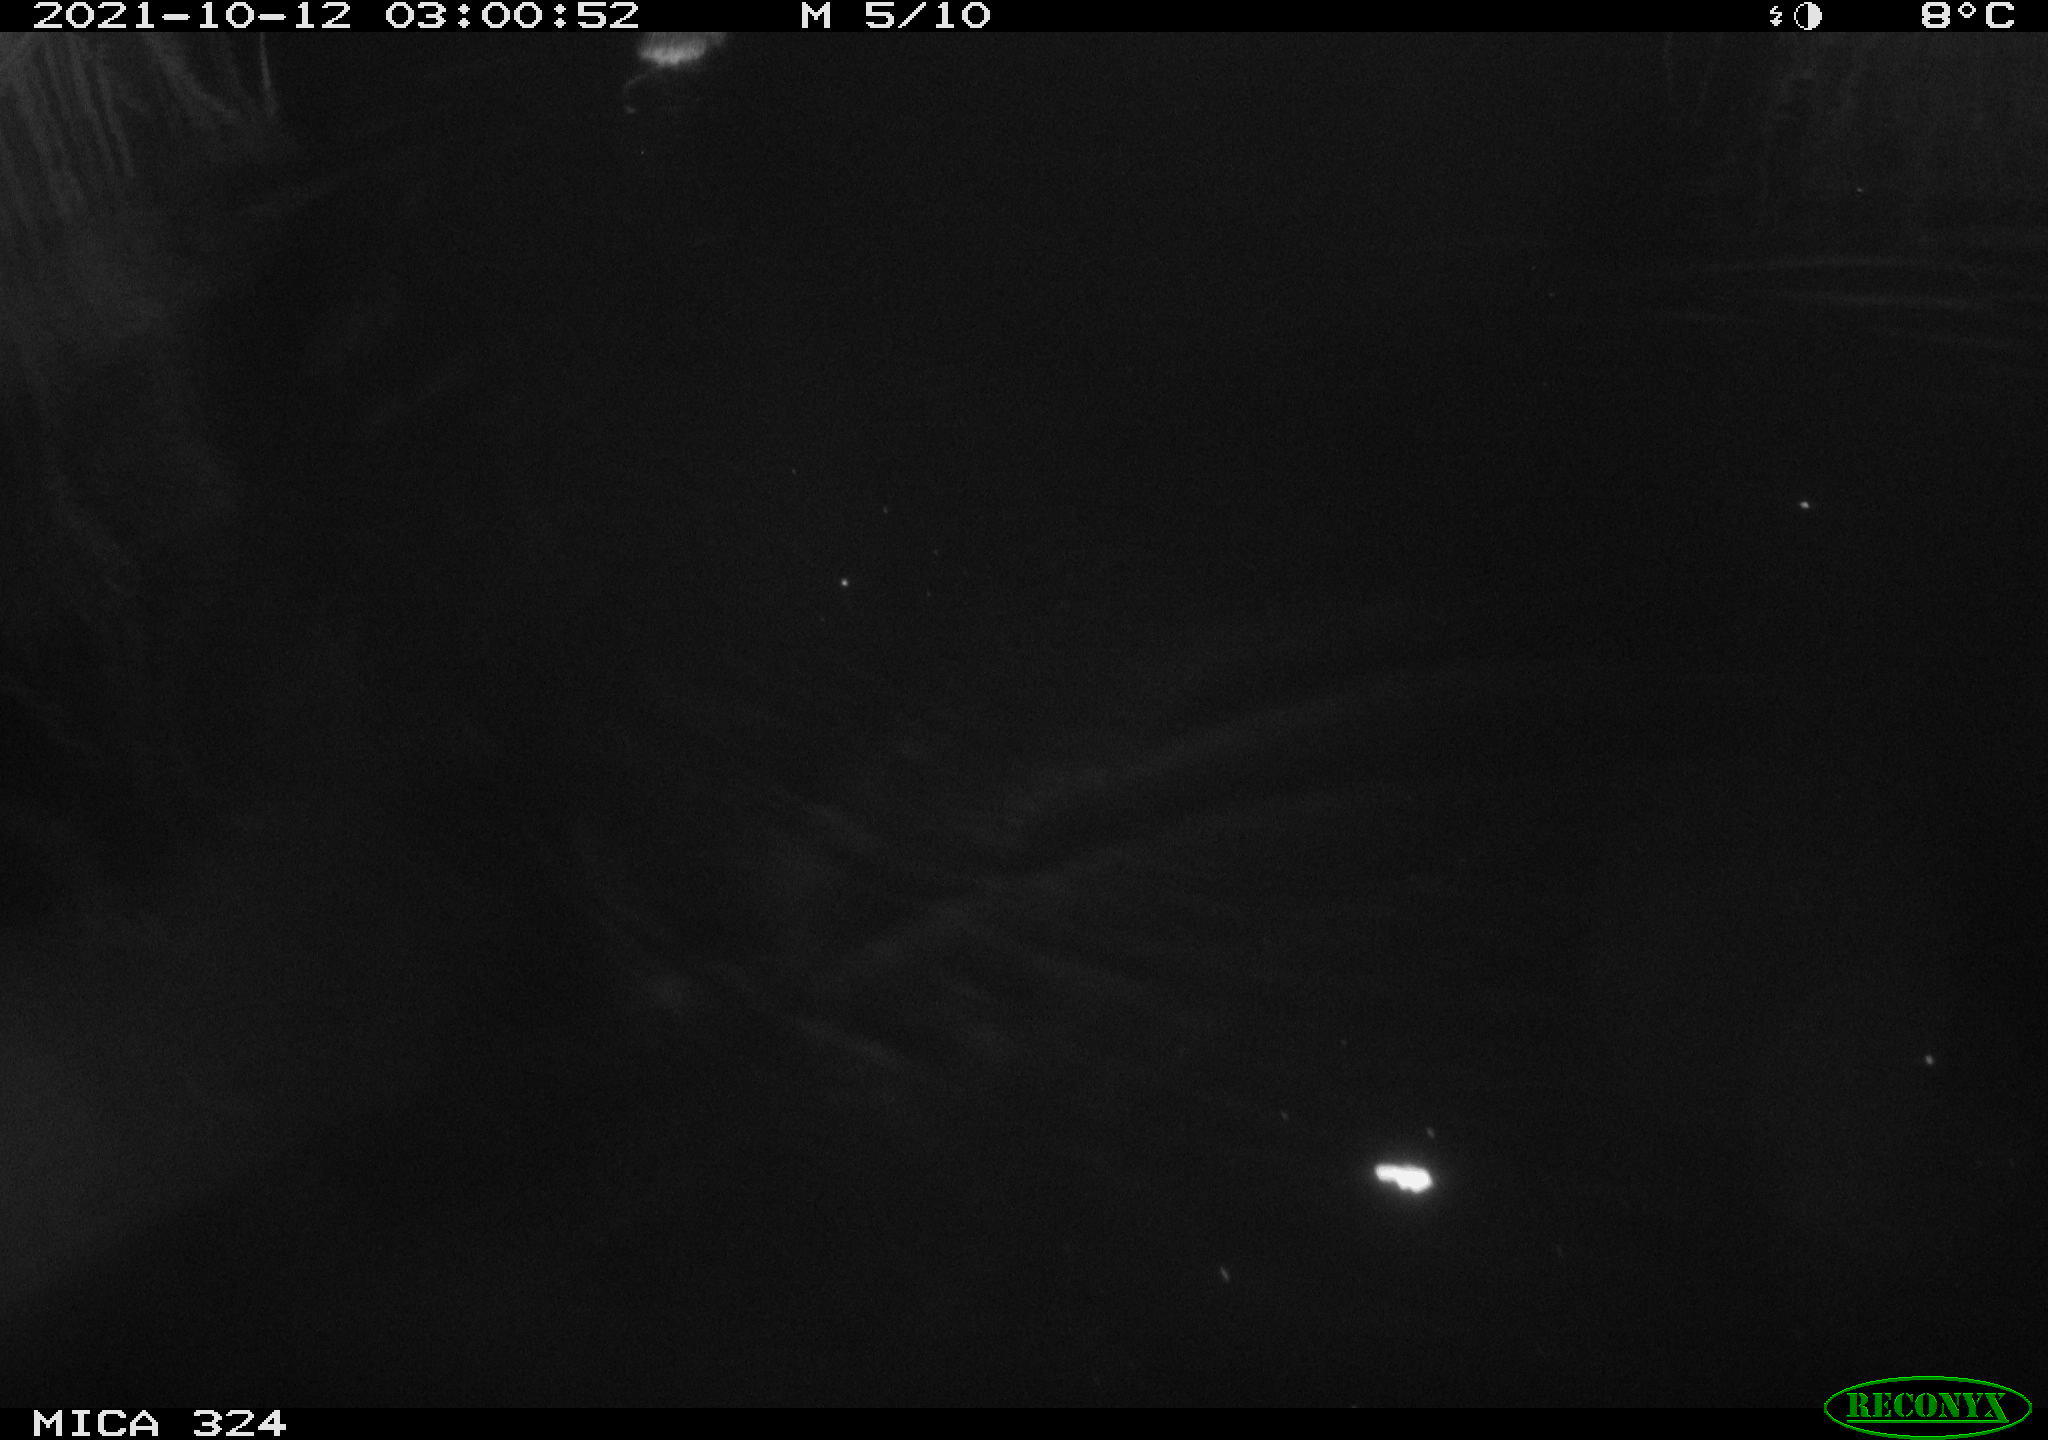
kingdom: Animalia
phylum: Chordata
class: Mammalia
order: Rodentia
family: Cricetidae
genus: Ondatra
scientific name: Ondatra zibethicus
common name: Muskrat
